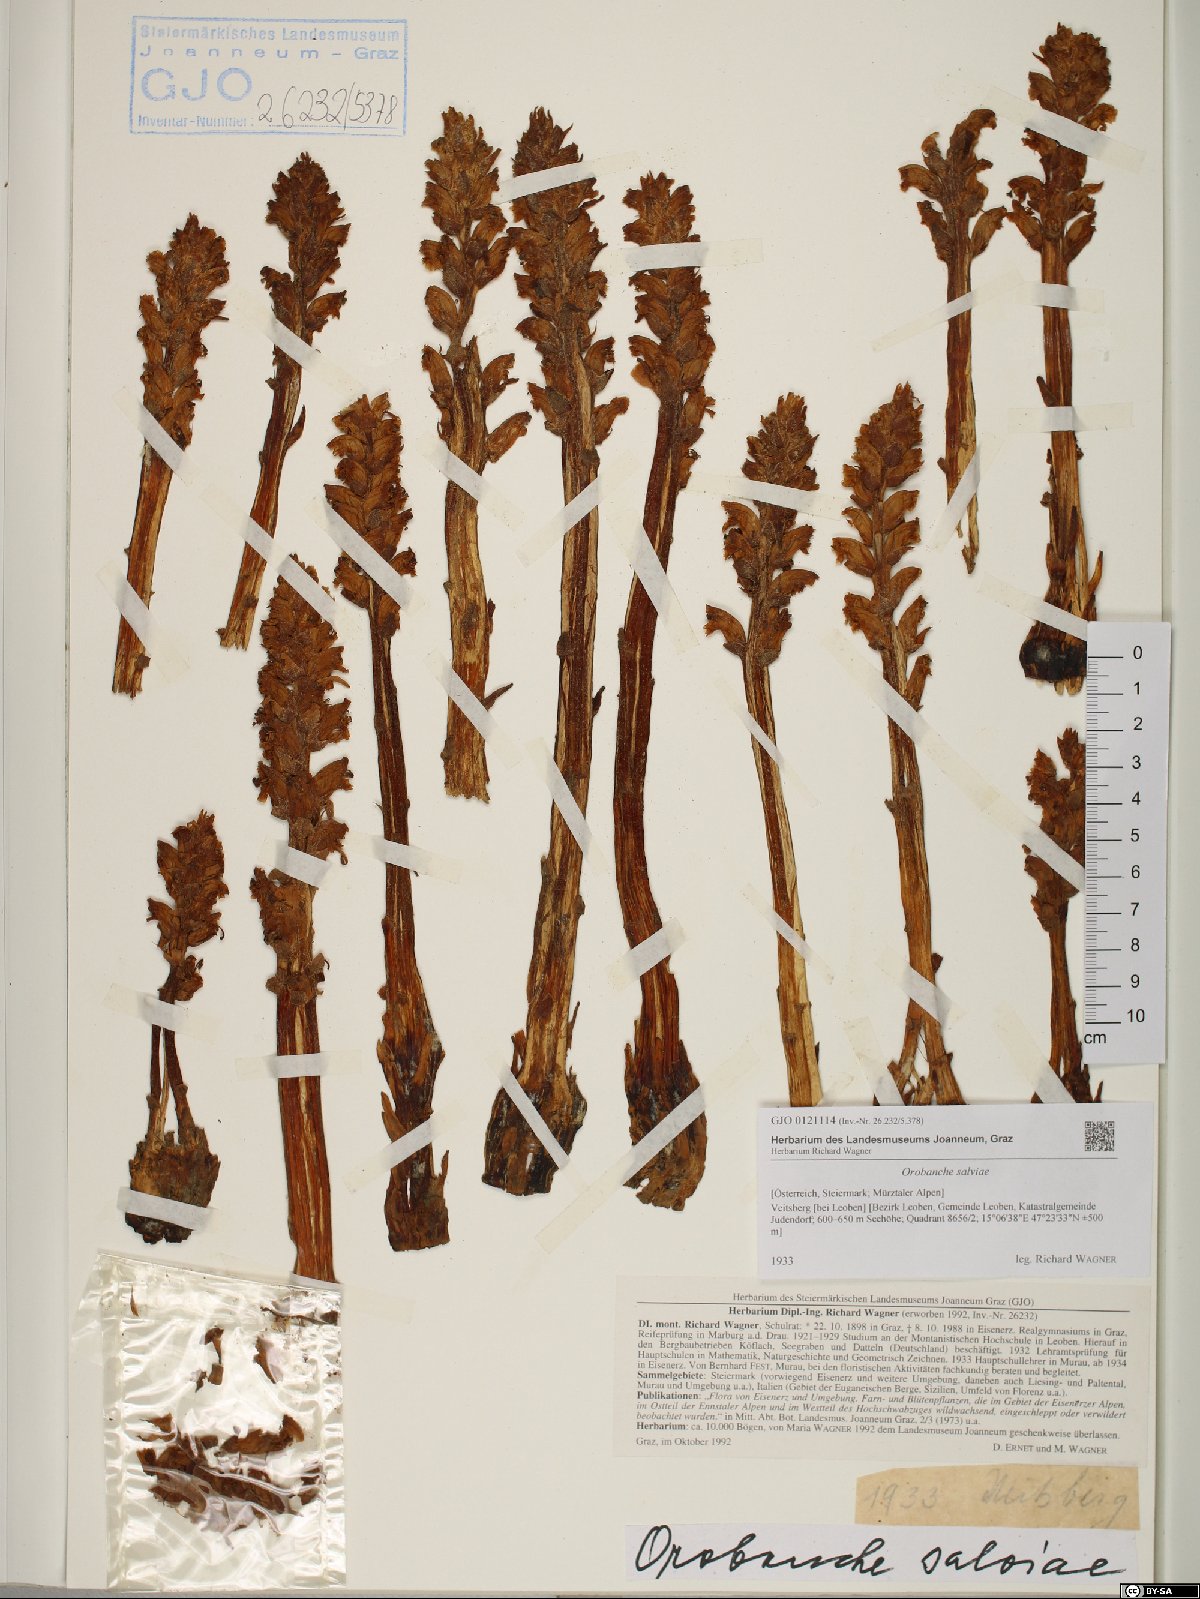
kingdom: Plantae
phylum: Tracheophyta
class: Magnoliopsida
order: Lamiales
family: Orobanchaceae
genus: Orobanche
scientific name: Orobanche salviae
